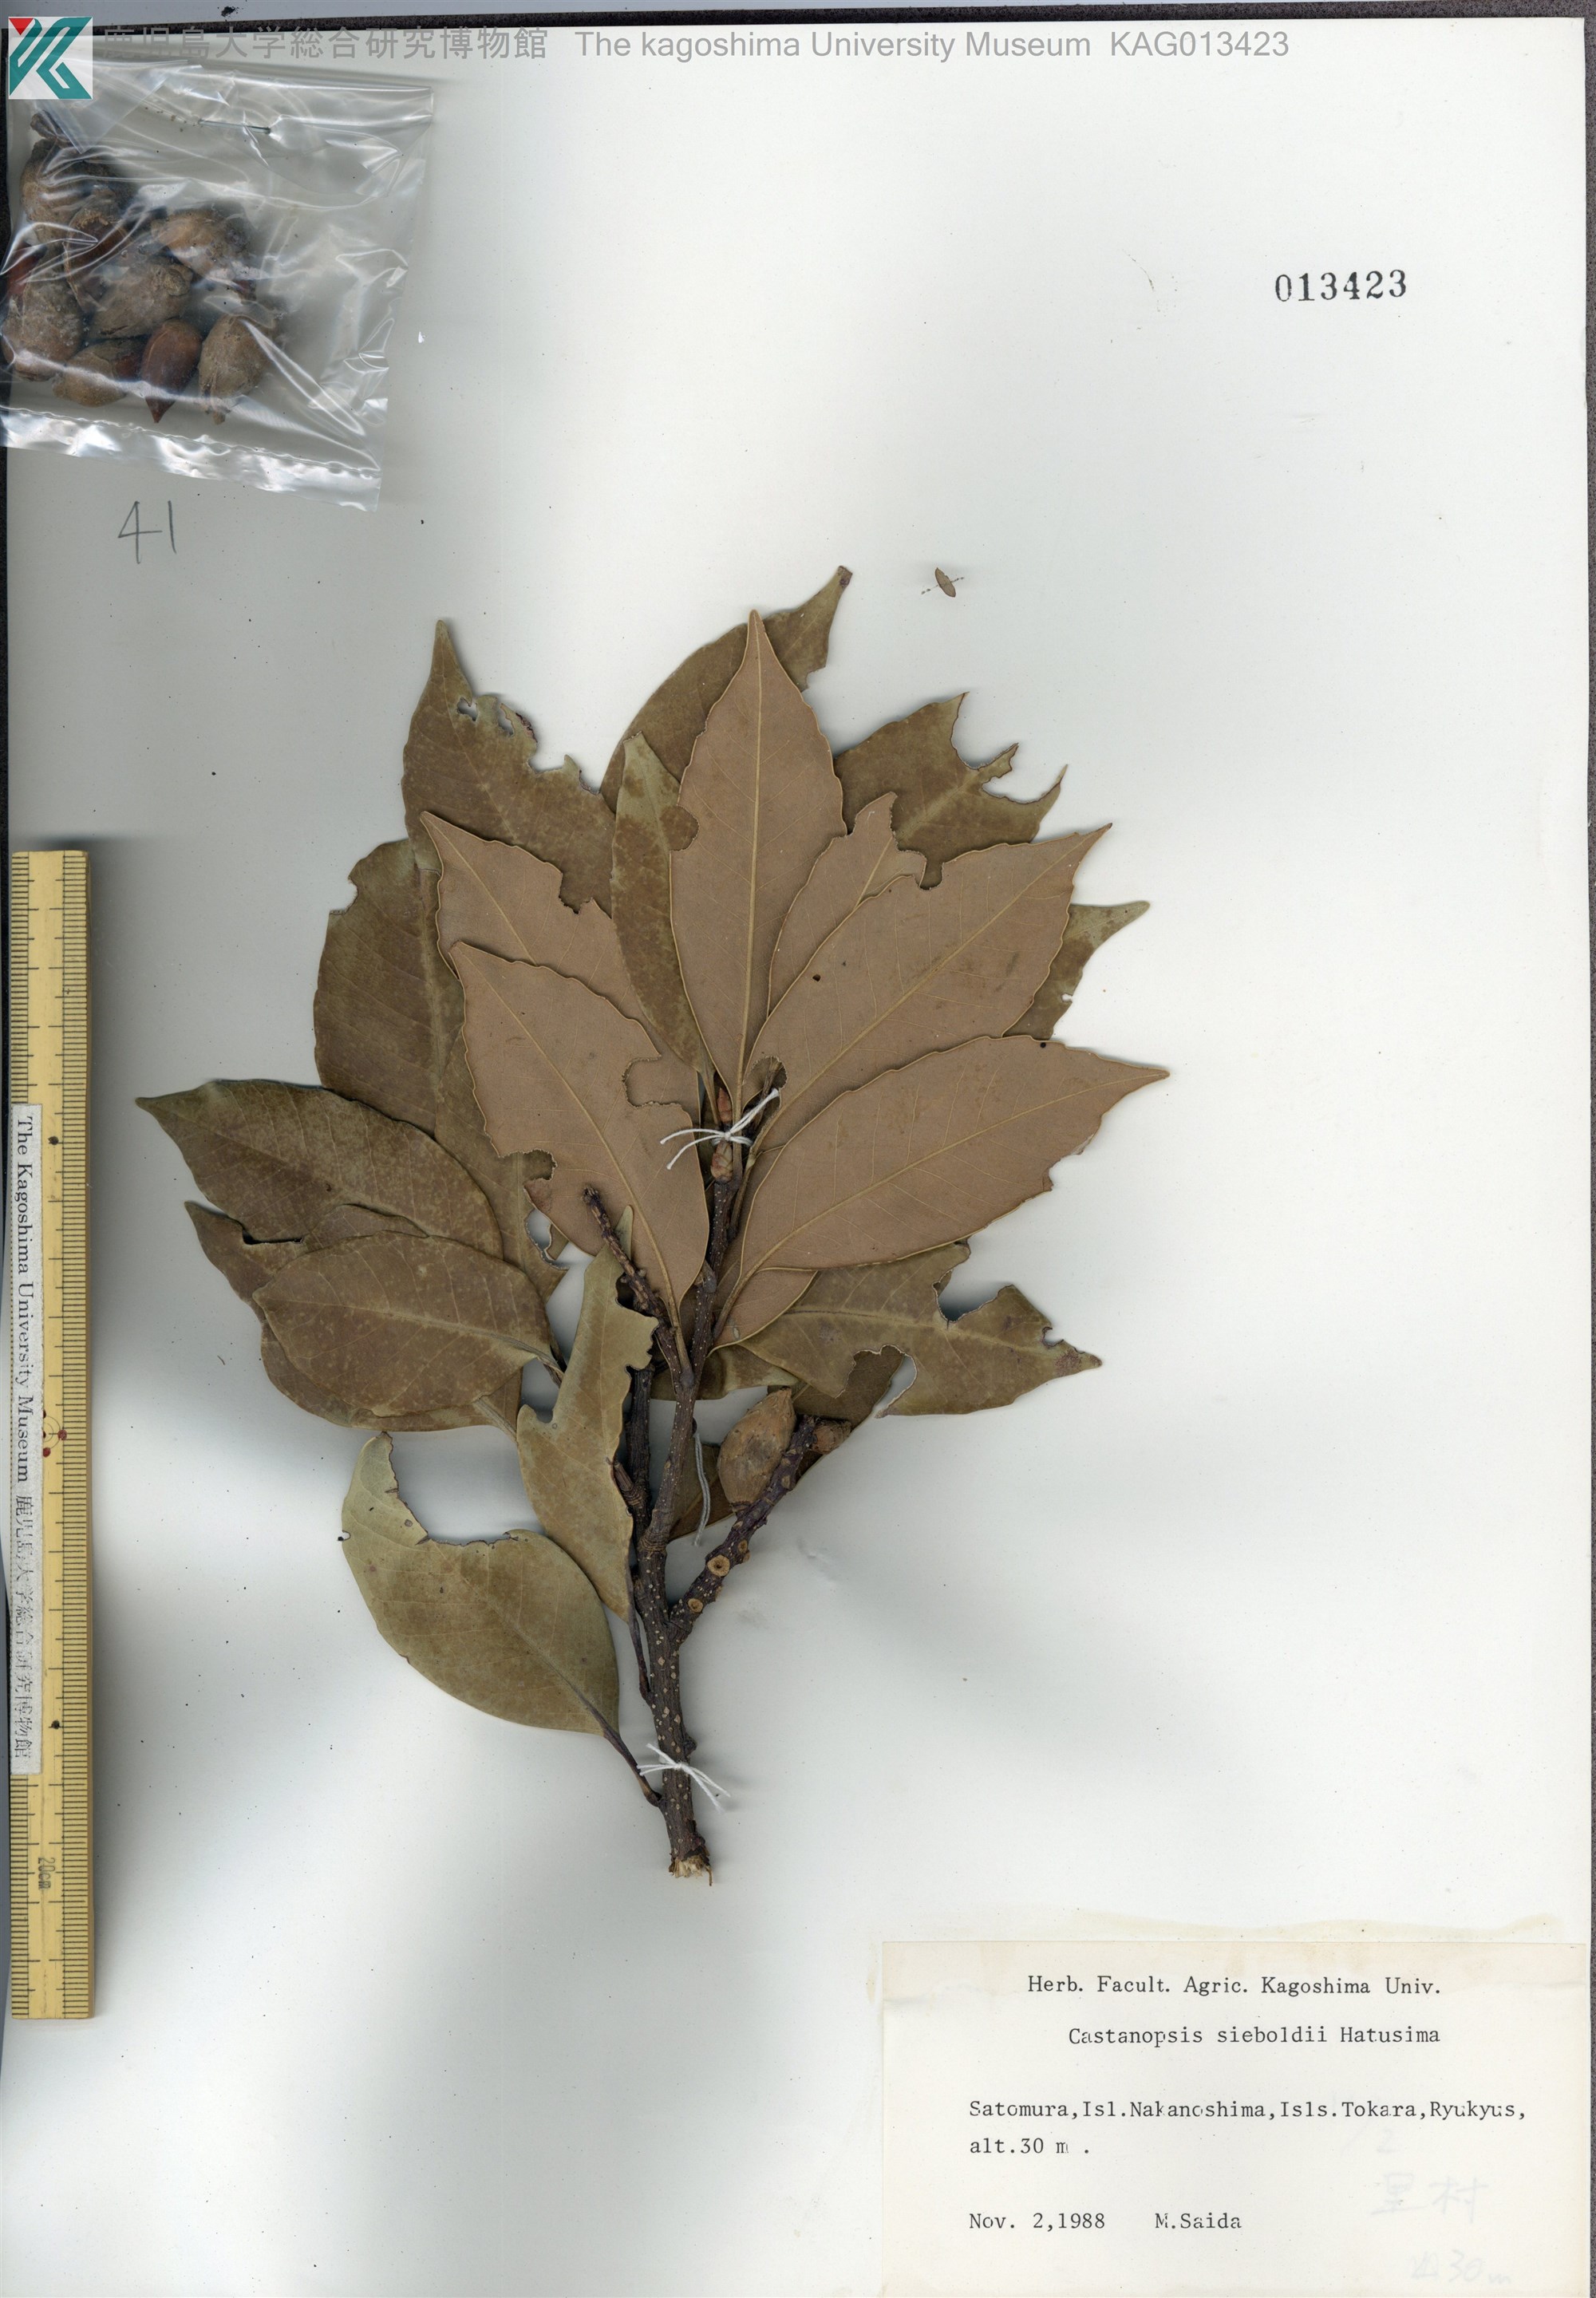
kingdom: Plantae
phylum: Tracheophyta
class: Magnoliopsida
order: Fagales
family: Fagaceae
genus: Castanopsis
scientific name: Castanopsis sieboldii
